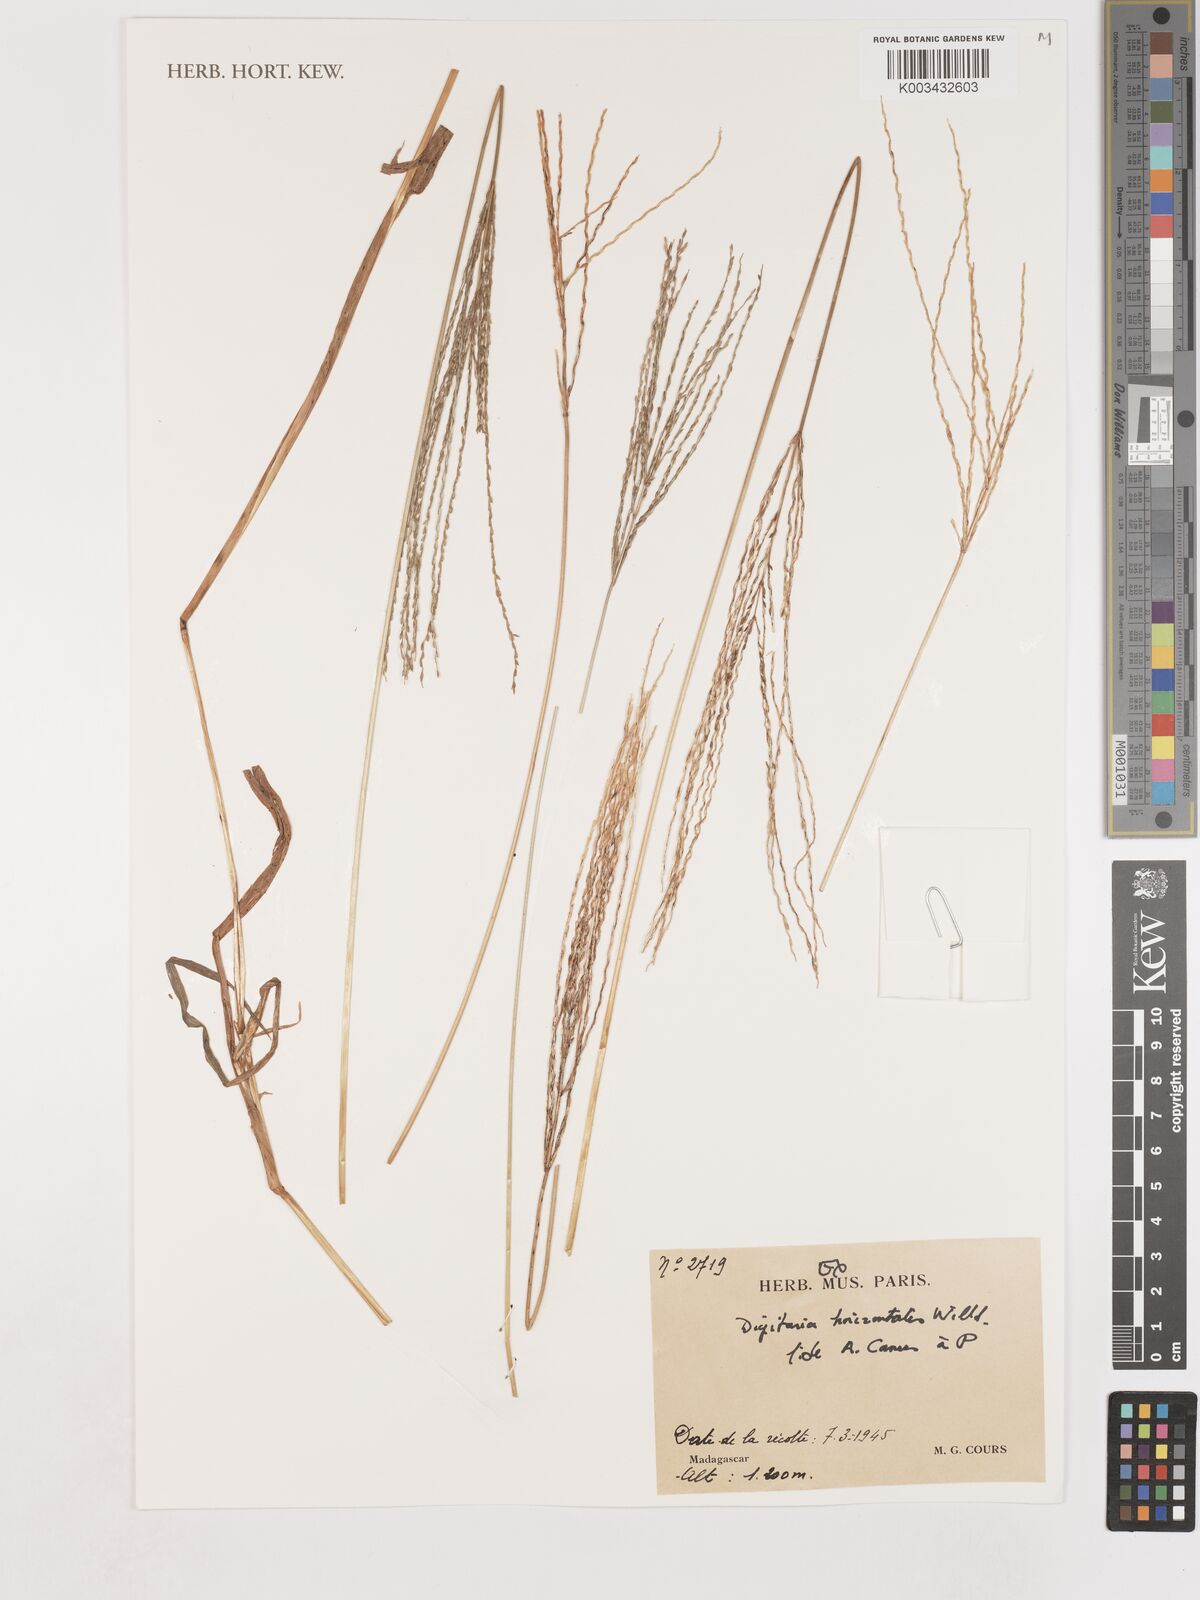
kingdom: Plantae
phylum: Tracheophyta
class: Liliopsida
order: Poales
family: Poaceae
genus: Digitaria
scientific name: Digitaria horizontalis
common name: Jamaican crabgrass
